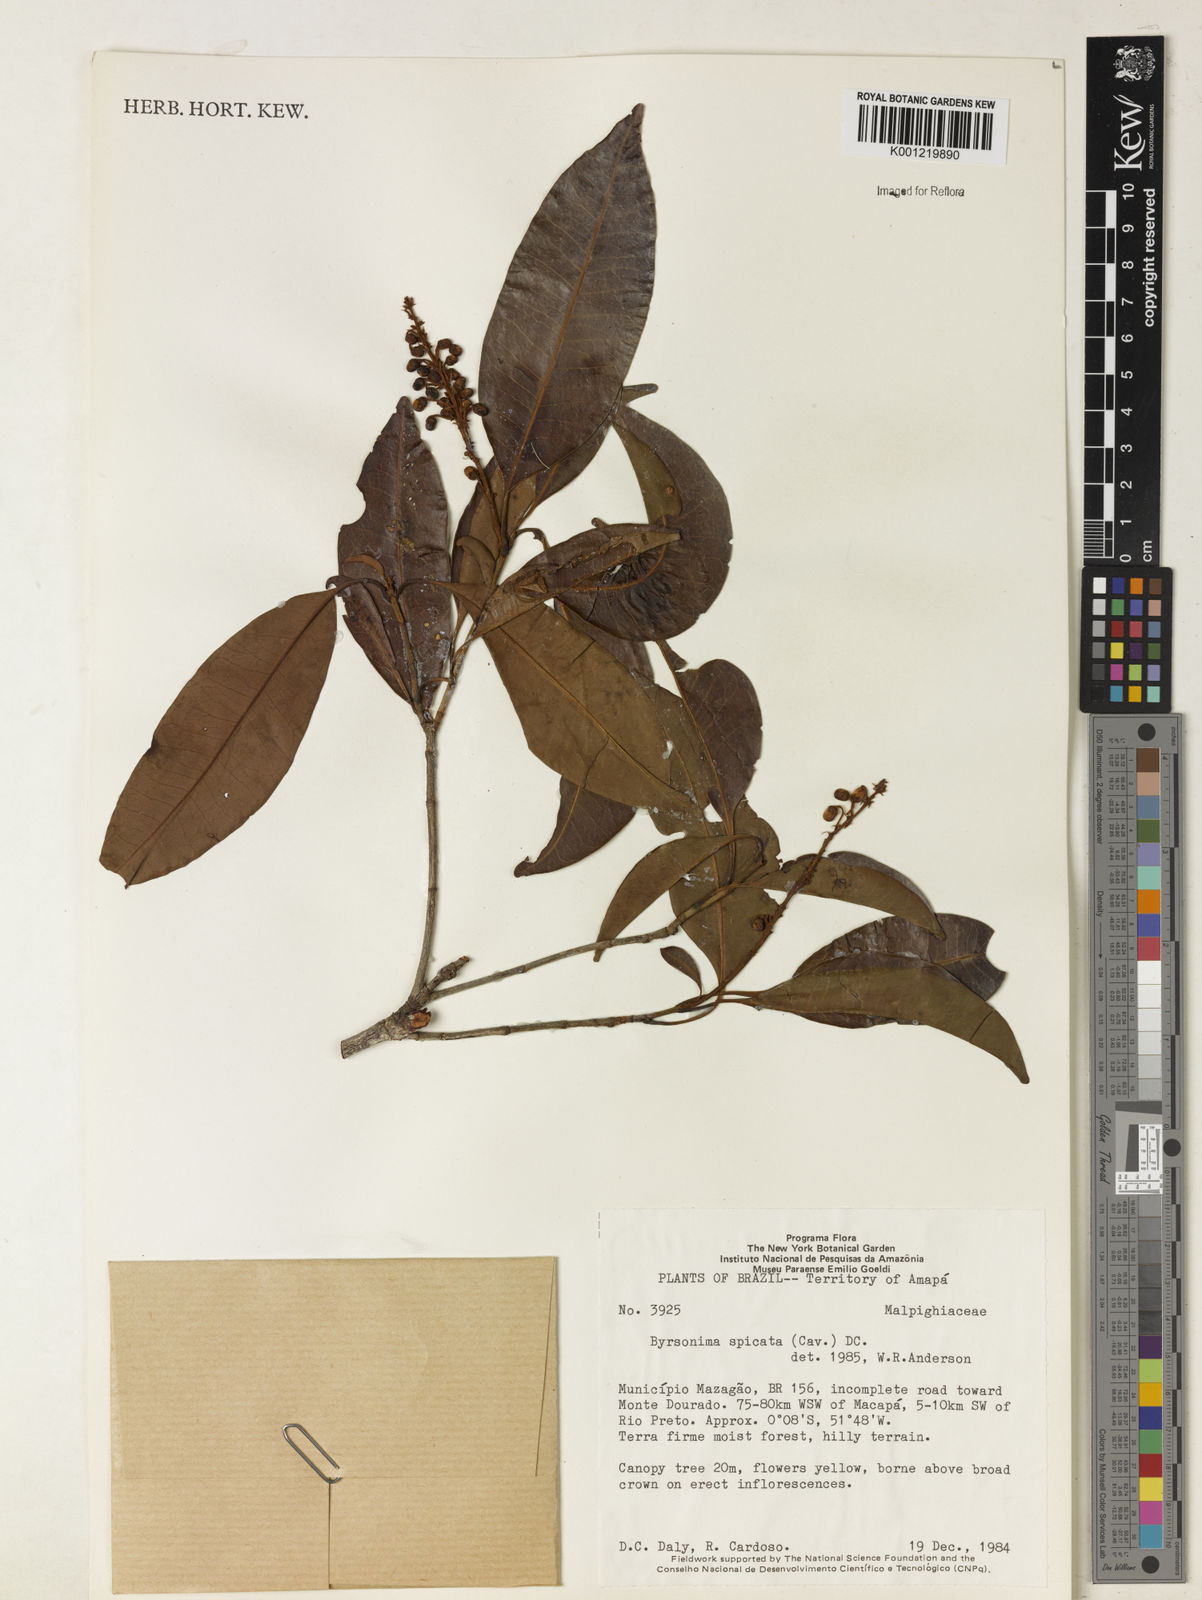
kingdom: Plantae
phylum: Tracheophyta
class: Magnoliopsida
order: Malpighiales
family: Malpighiaceae
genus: Byrsonima
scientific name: Byrsonima
